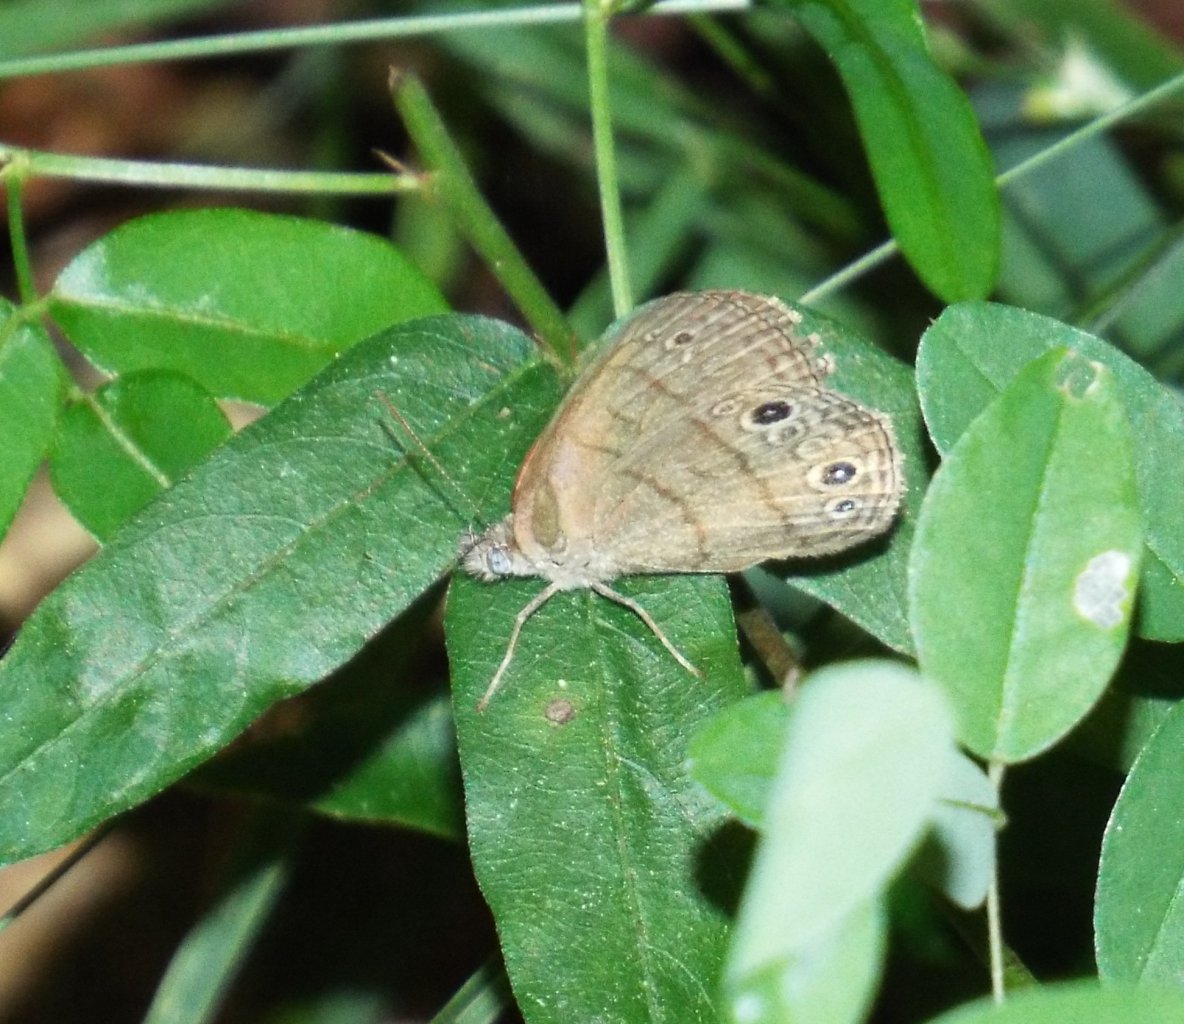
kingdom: Animalia
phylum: Arthropoda
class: Insecta
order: Lepidoptera
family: Nymphalidae
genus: Hermeuptychia
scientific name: Hermeuptychia
